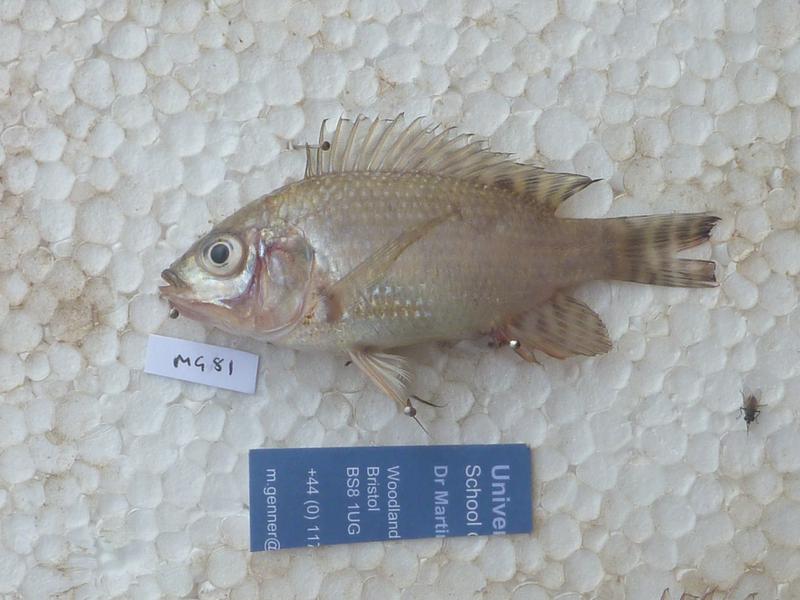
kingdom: Animalia
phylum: Chordata
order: Perciformes
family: Cichlidae
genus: Oreochromis
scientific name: Oreochromis niloticus
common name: Nile tilapia
